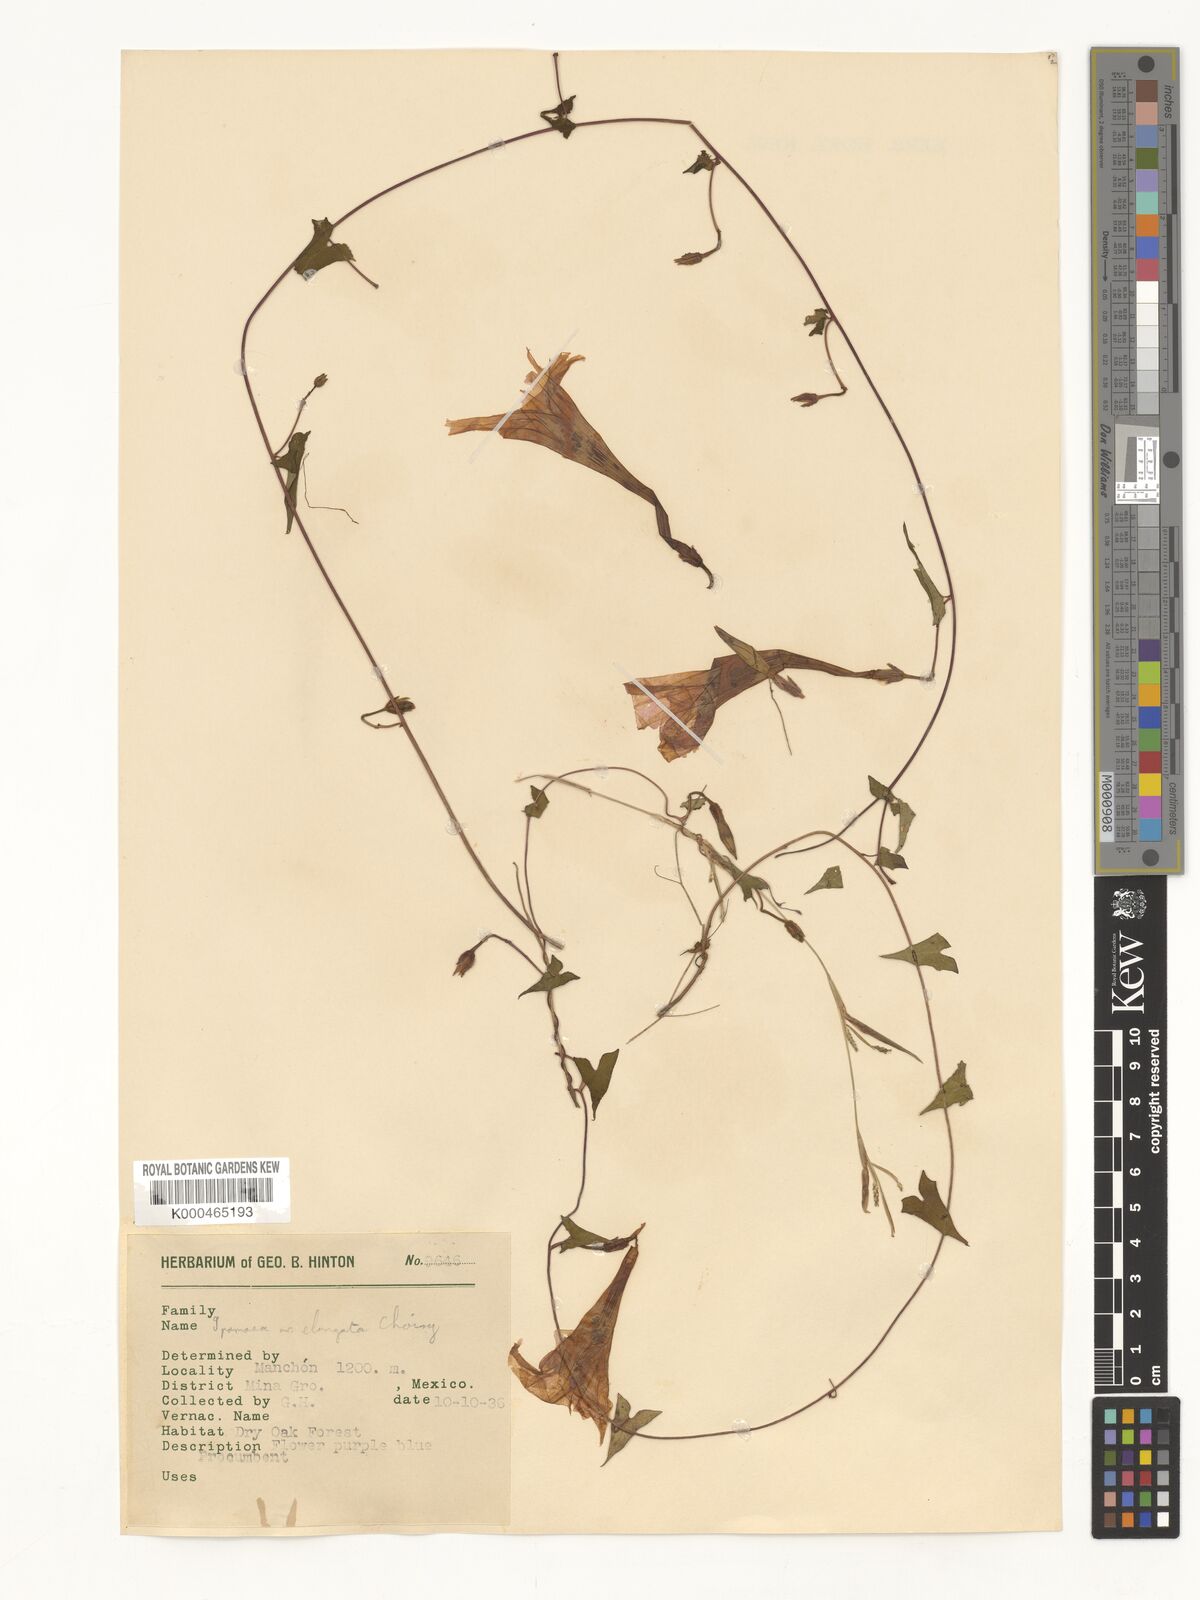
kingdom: Plantae
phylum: Tracheophyta
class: Magnoliopsida
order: Solanales
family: Convolvulaceae
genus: Ipomoea
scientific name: Ipomoea elongata
